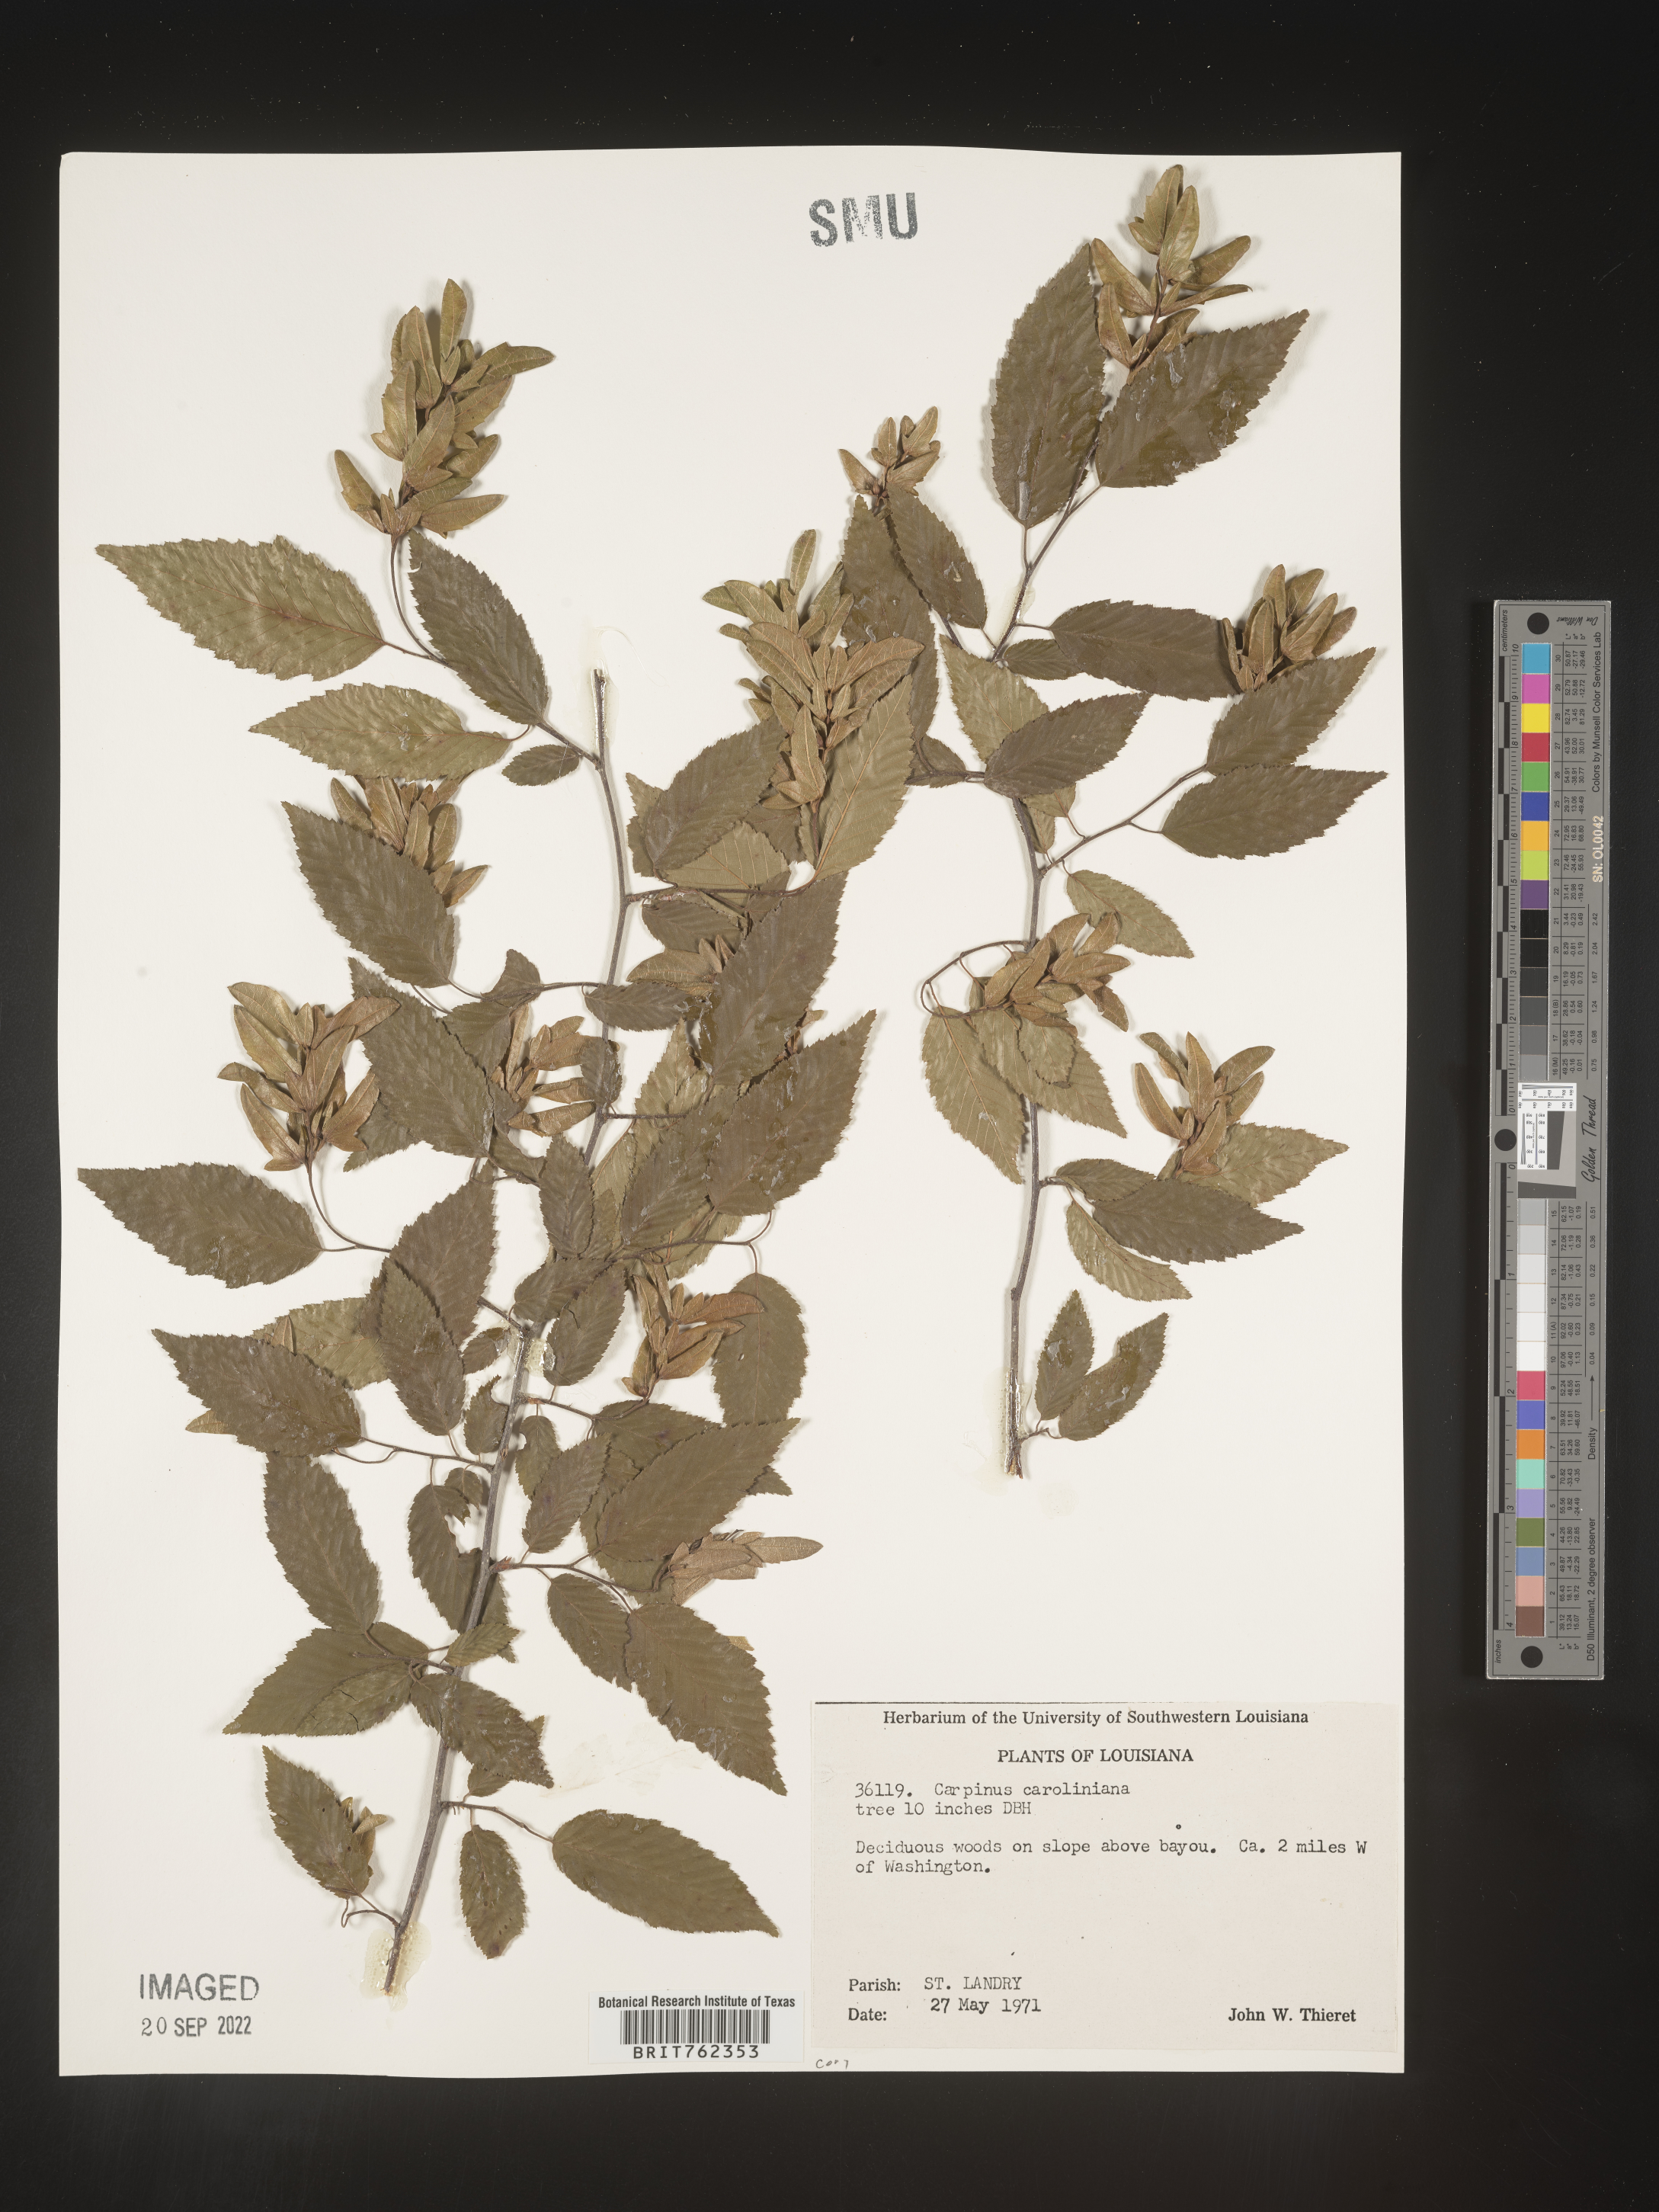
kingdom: Plantae
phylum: Tracheophyta
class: Magnoliopsida
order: Fagales
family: Betulaceae
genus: Carpinus
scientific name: Carpinus caroliniana
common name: American hornbeam
